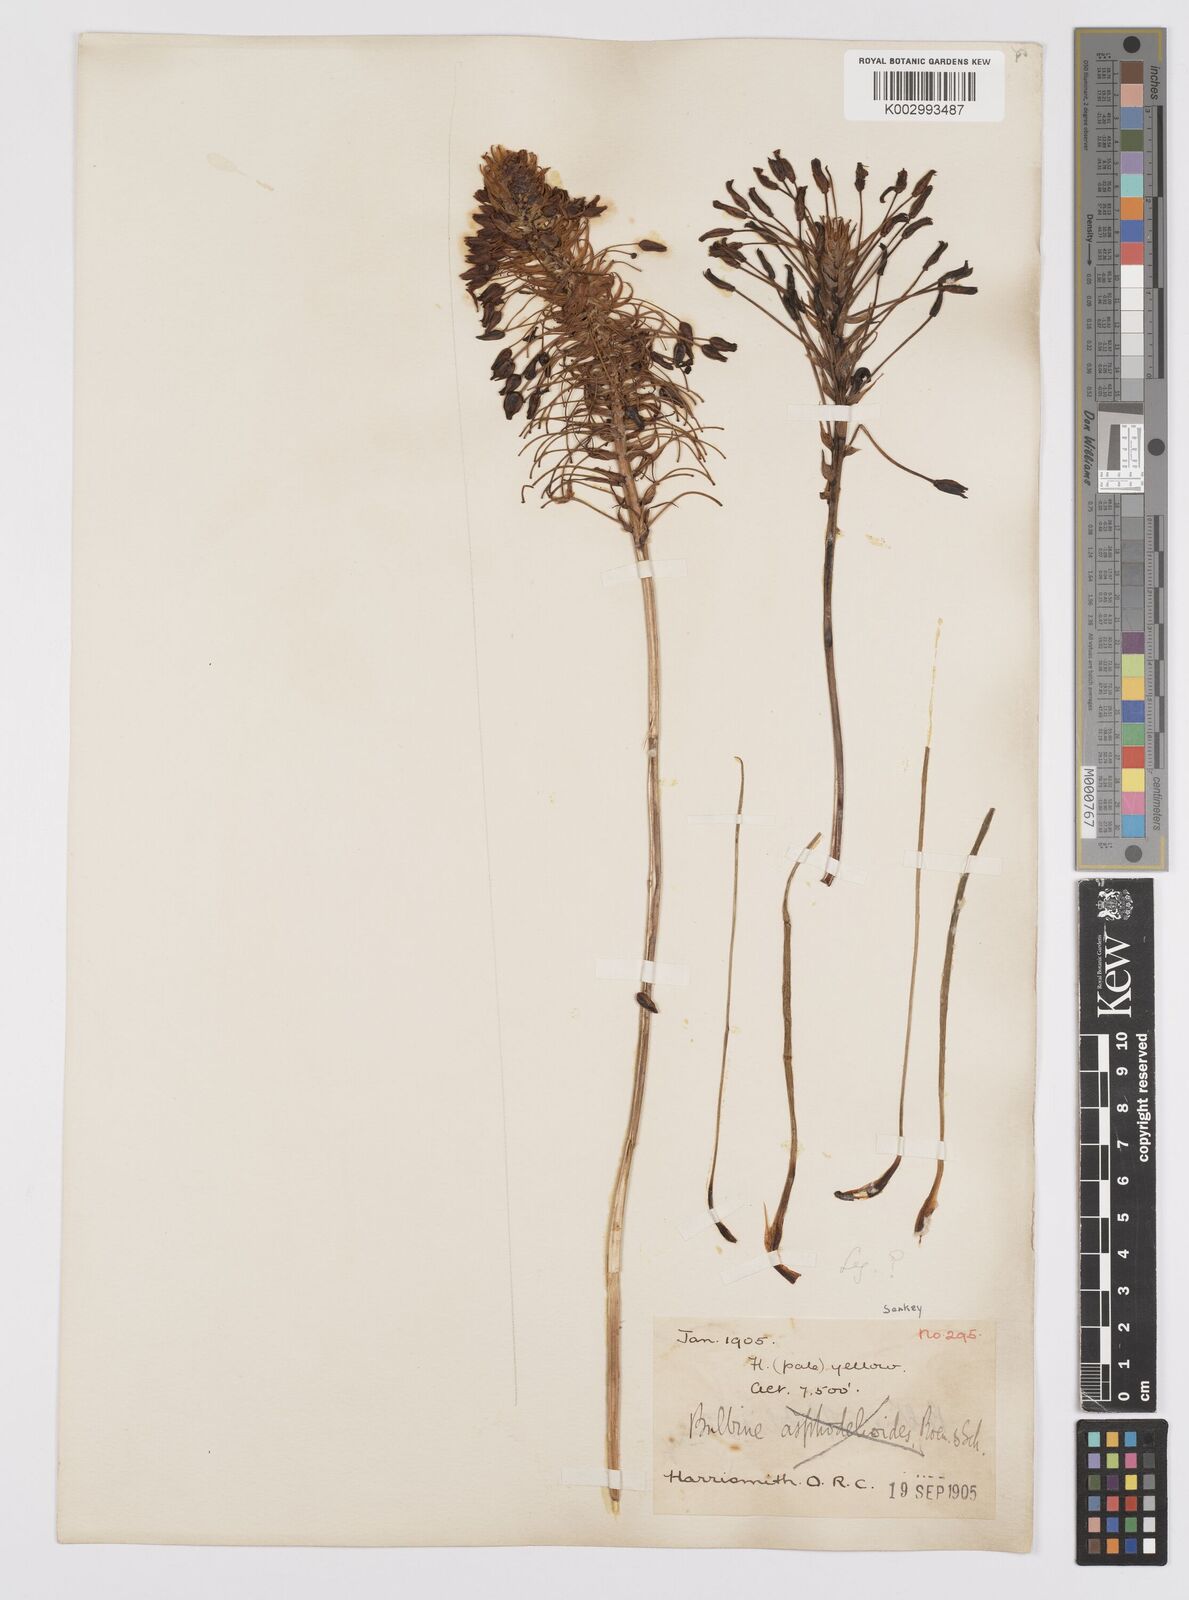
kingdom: Plantae
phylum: Tracheophyta
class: Liliopsida
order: Asparagales
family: Asphodelaceae
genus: Bulbine
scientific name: Bulbine abyssinica
